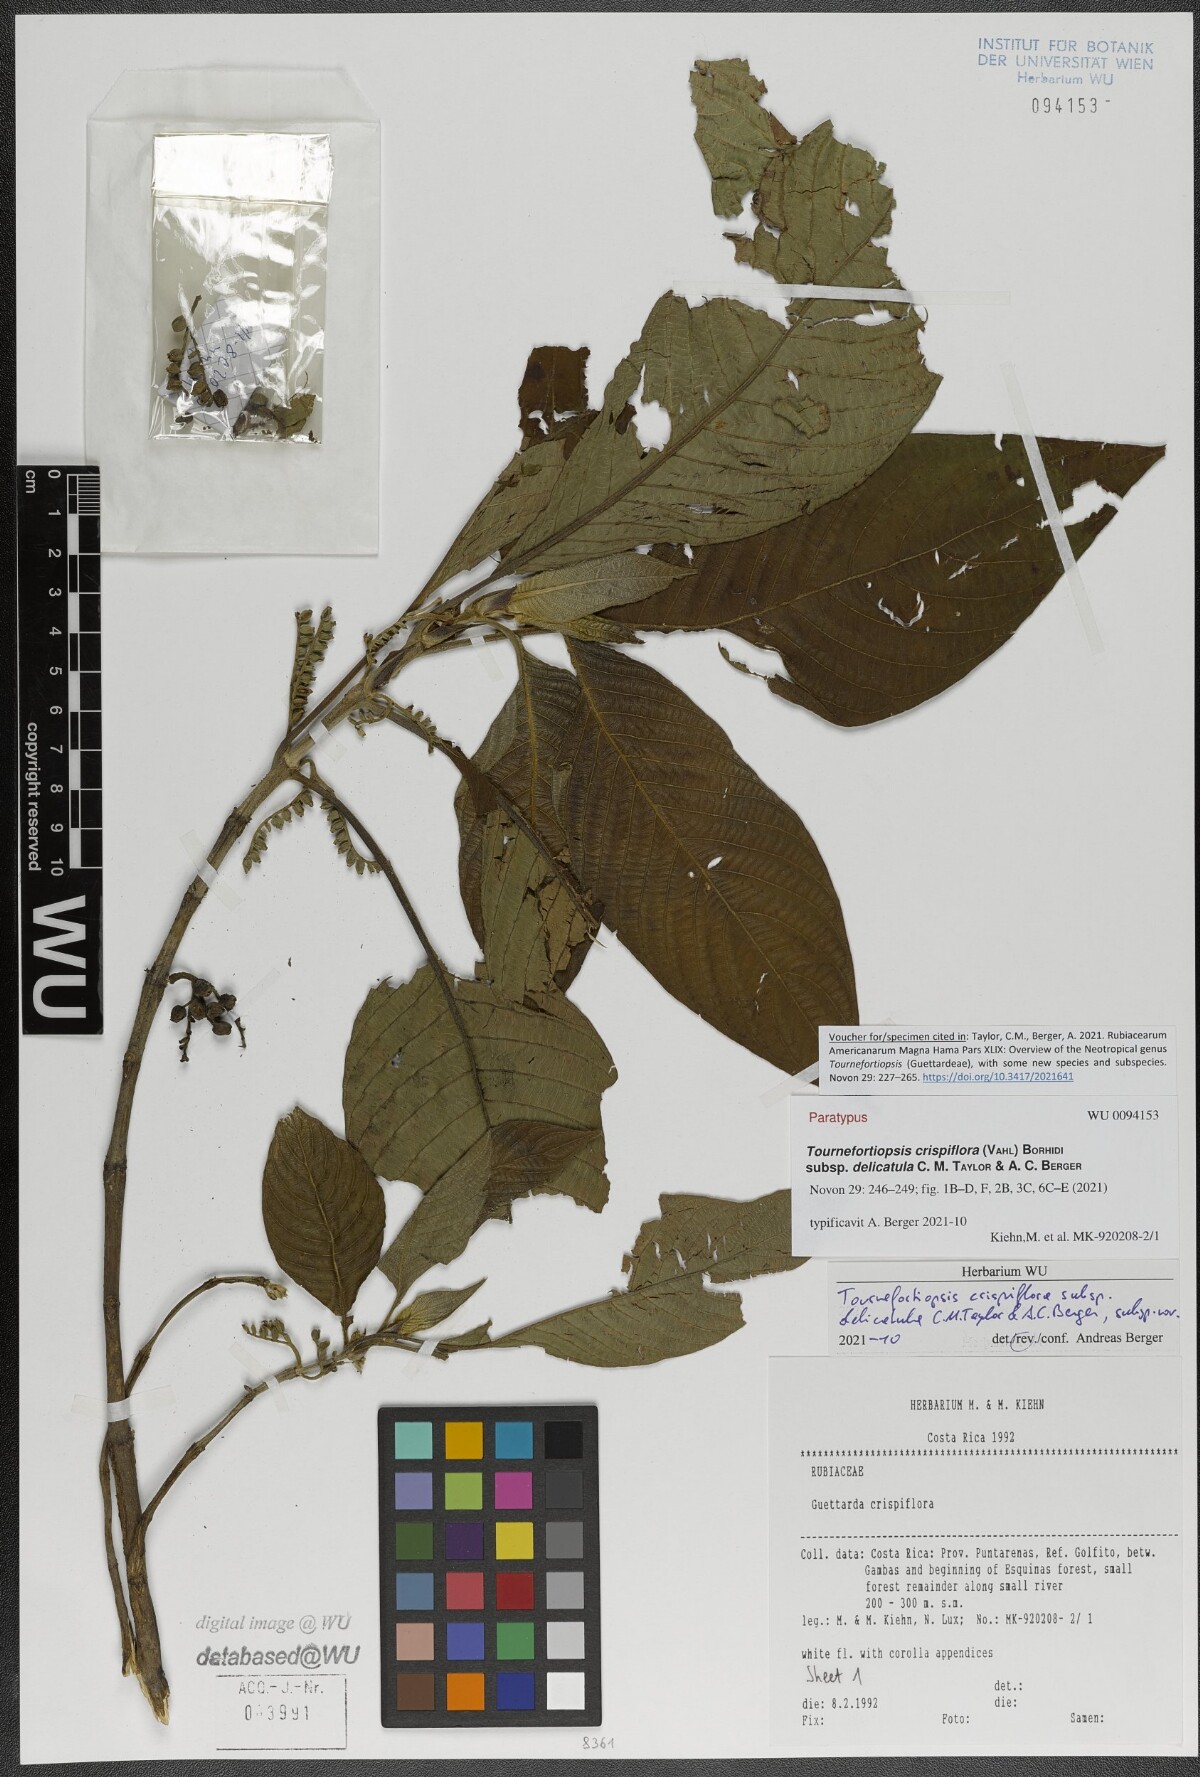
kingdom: Plantae
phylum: Tracheophyta
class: Magnoliopsida
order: Gentianales
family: Rubiaceae
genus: Tournefortiopsis
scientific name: Tournefortiopsis crispiflora
